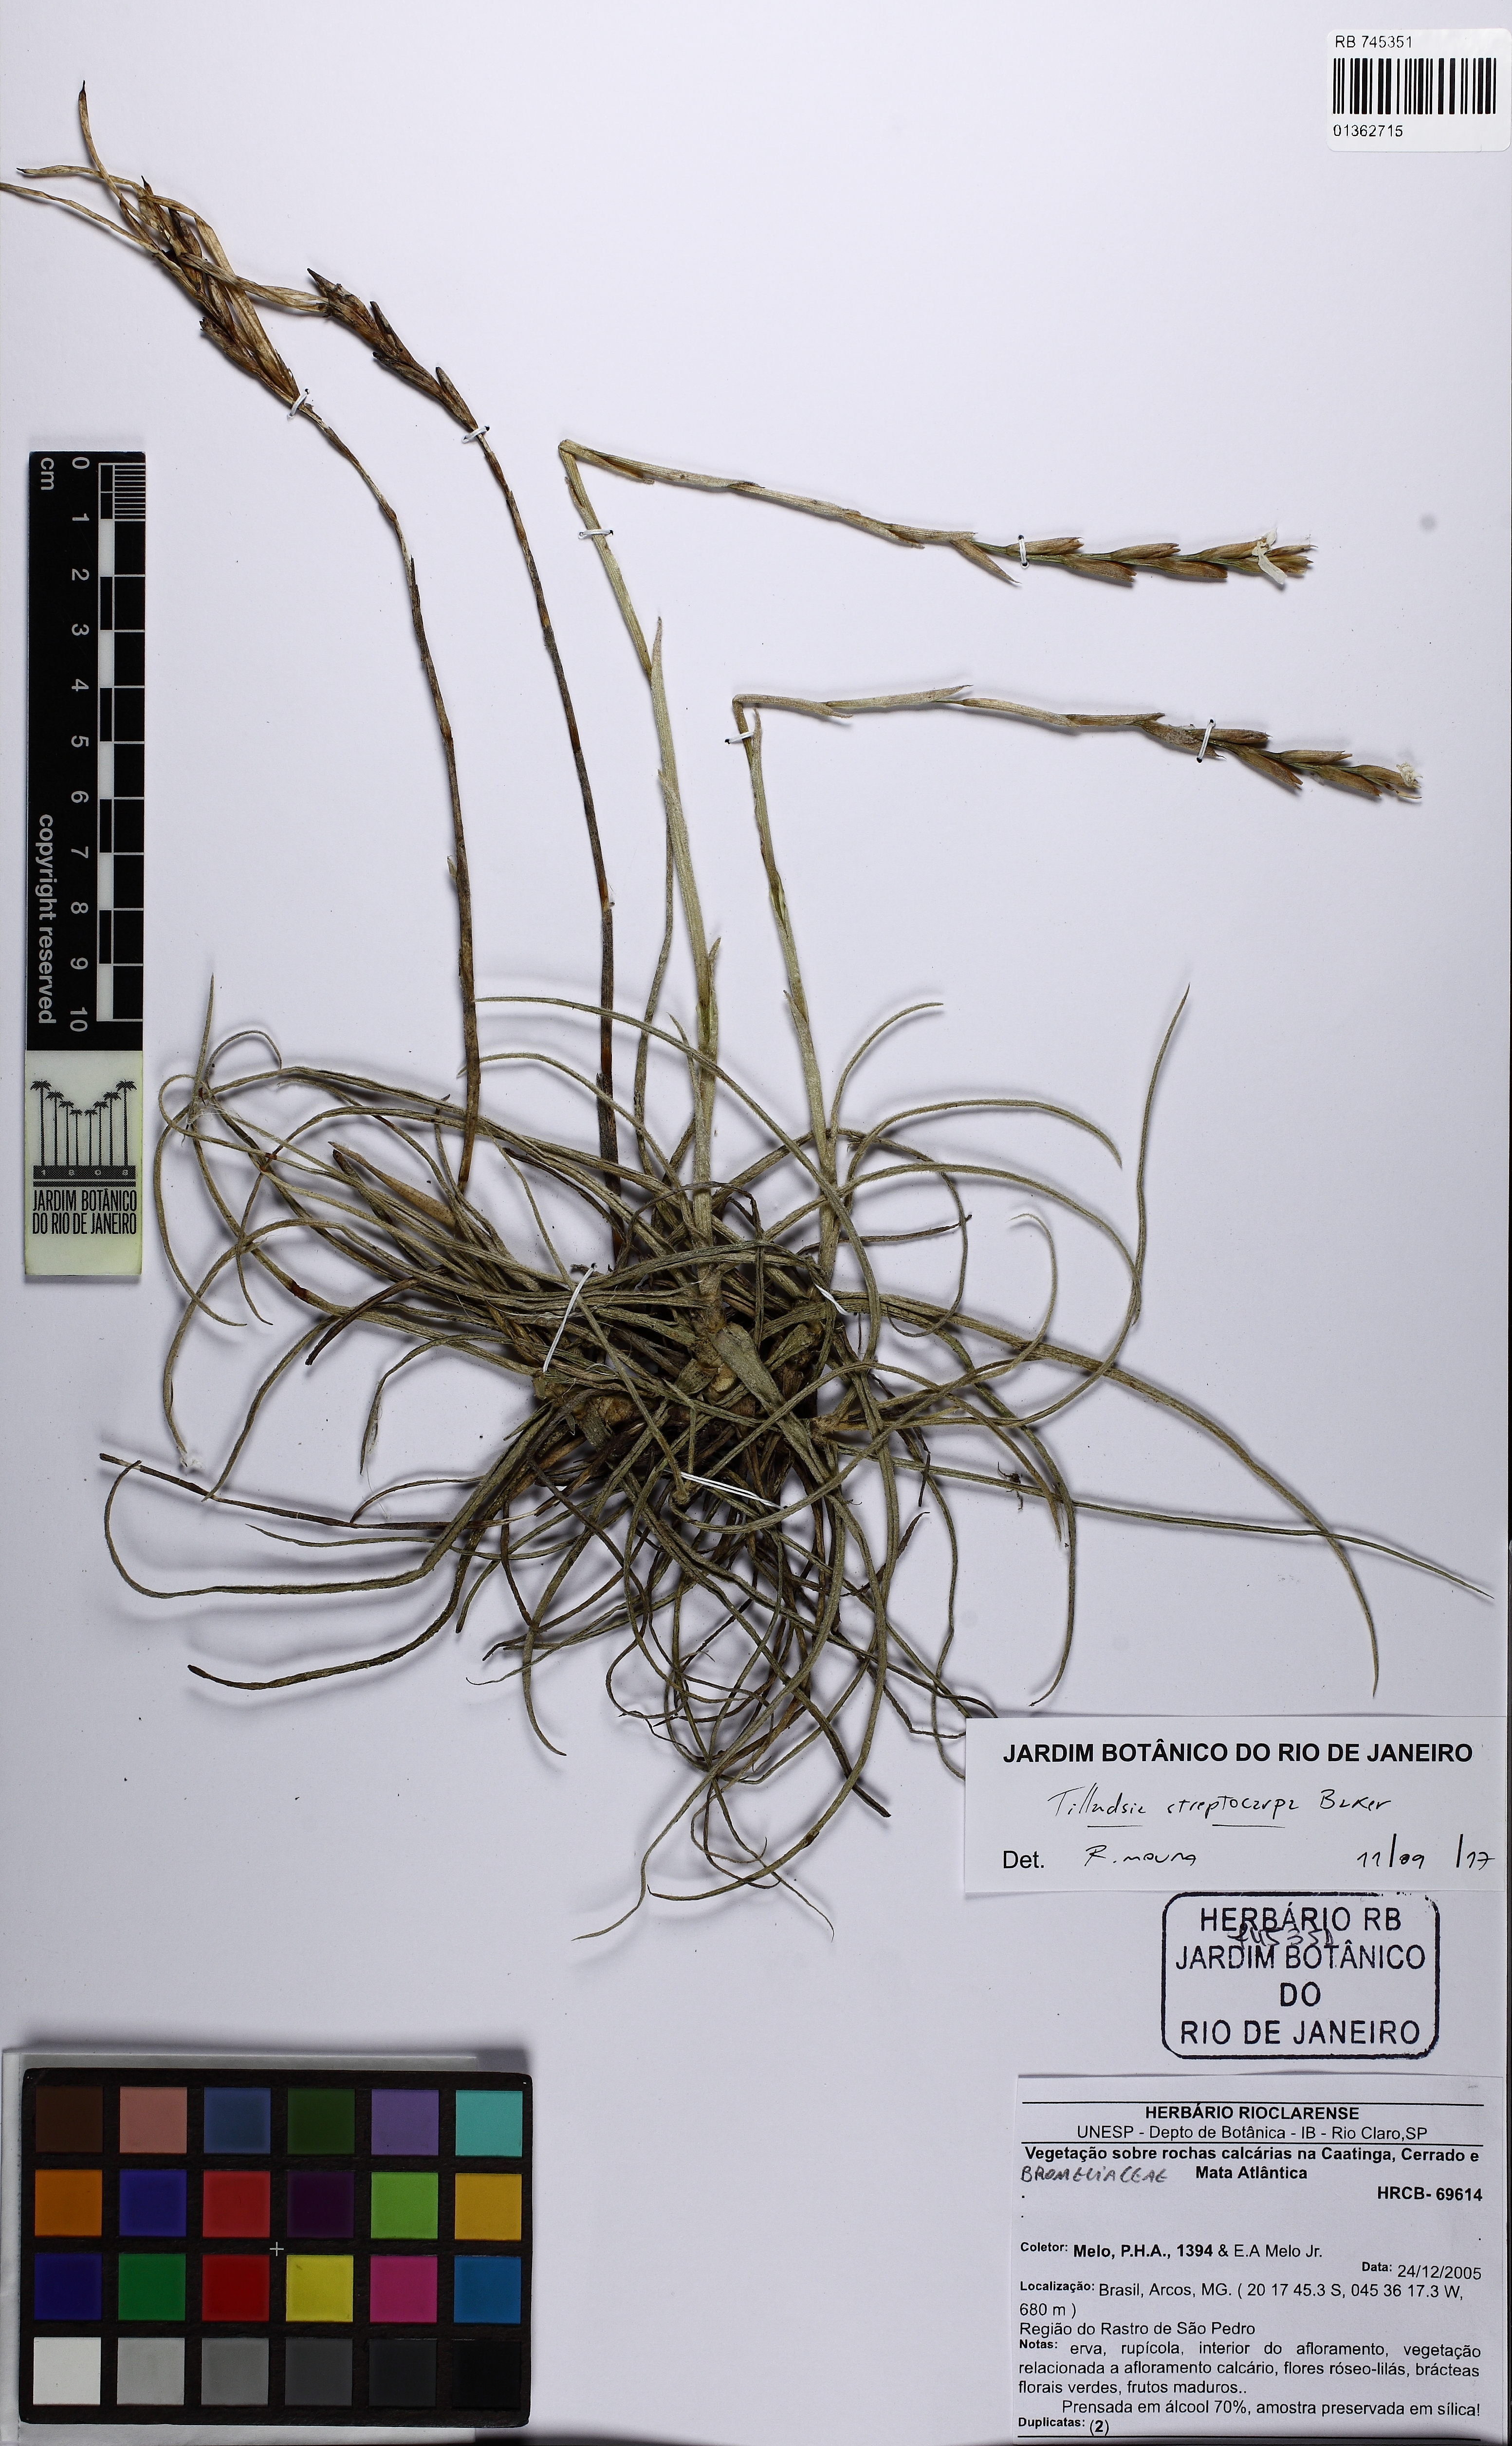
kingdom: Plantae
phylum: Tracheophyta
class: Liliopsida
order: Poales
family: Bromeliaceae
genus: Tillandsia
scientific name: Tillandsia streptocarpa
